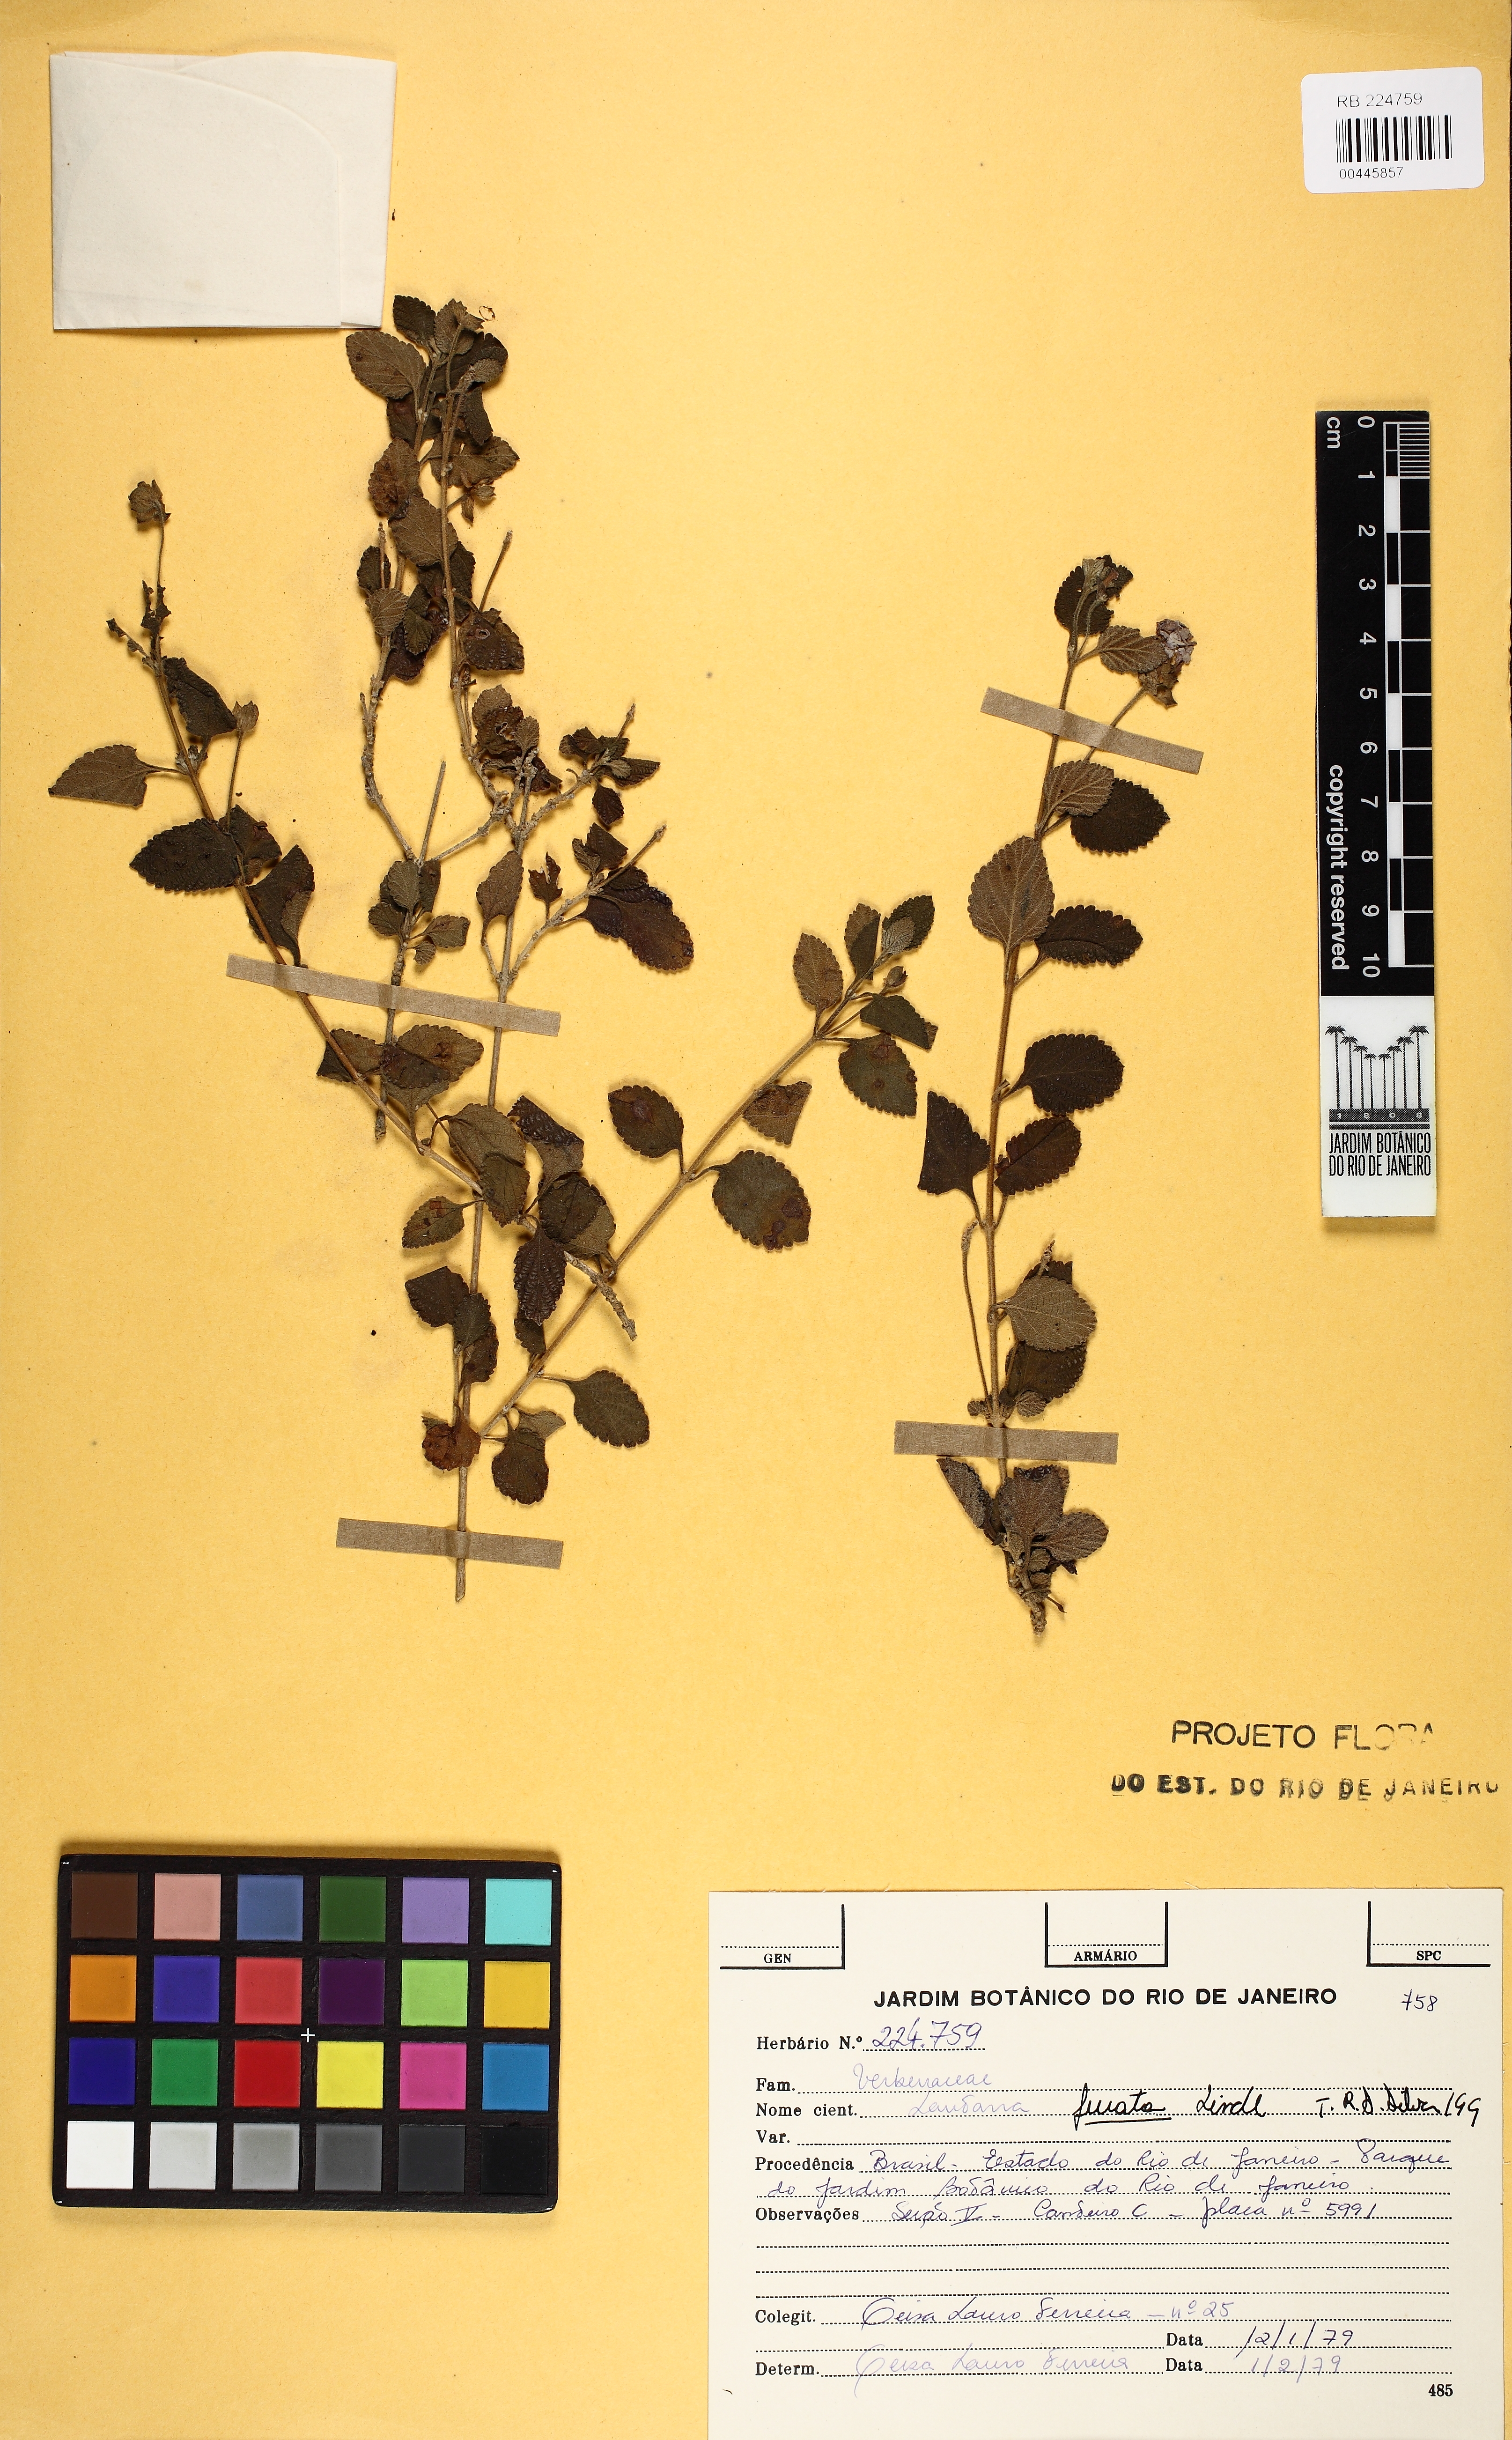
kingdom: Plantae
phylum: Tracheophyta
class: Magnoliopsida
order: Lamiales
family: Verbenaceae
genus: Lantana
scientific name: Lantana fucata
